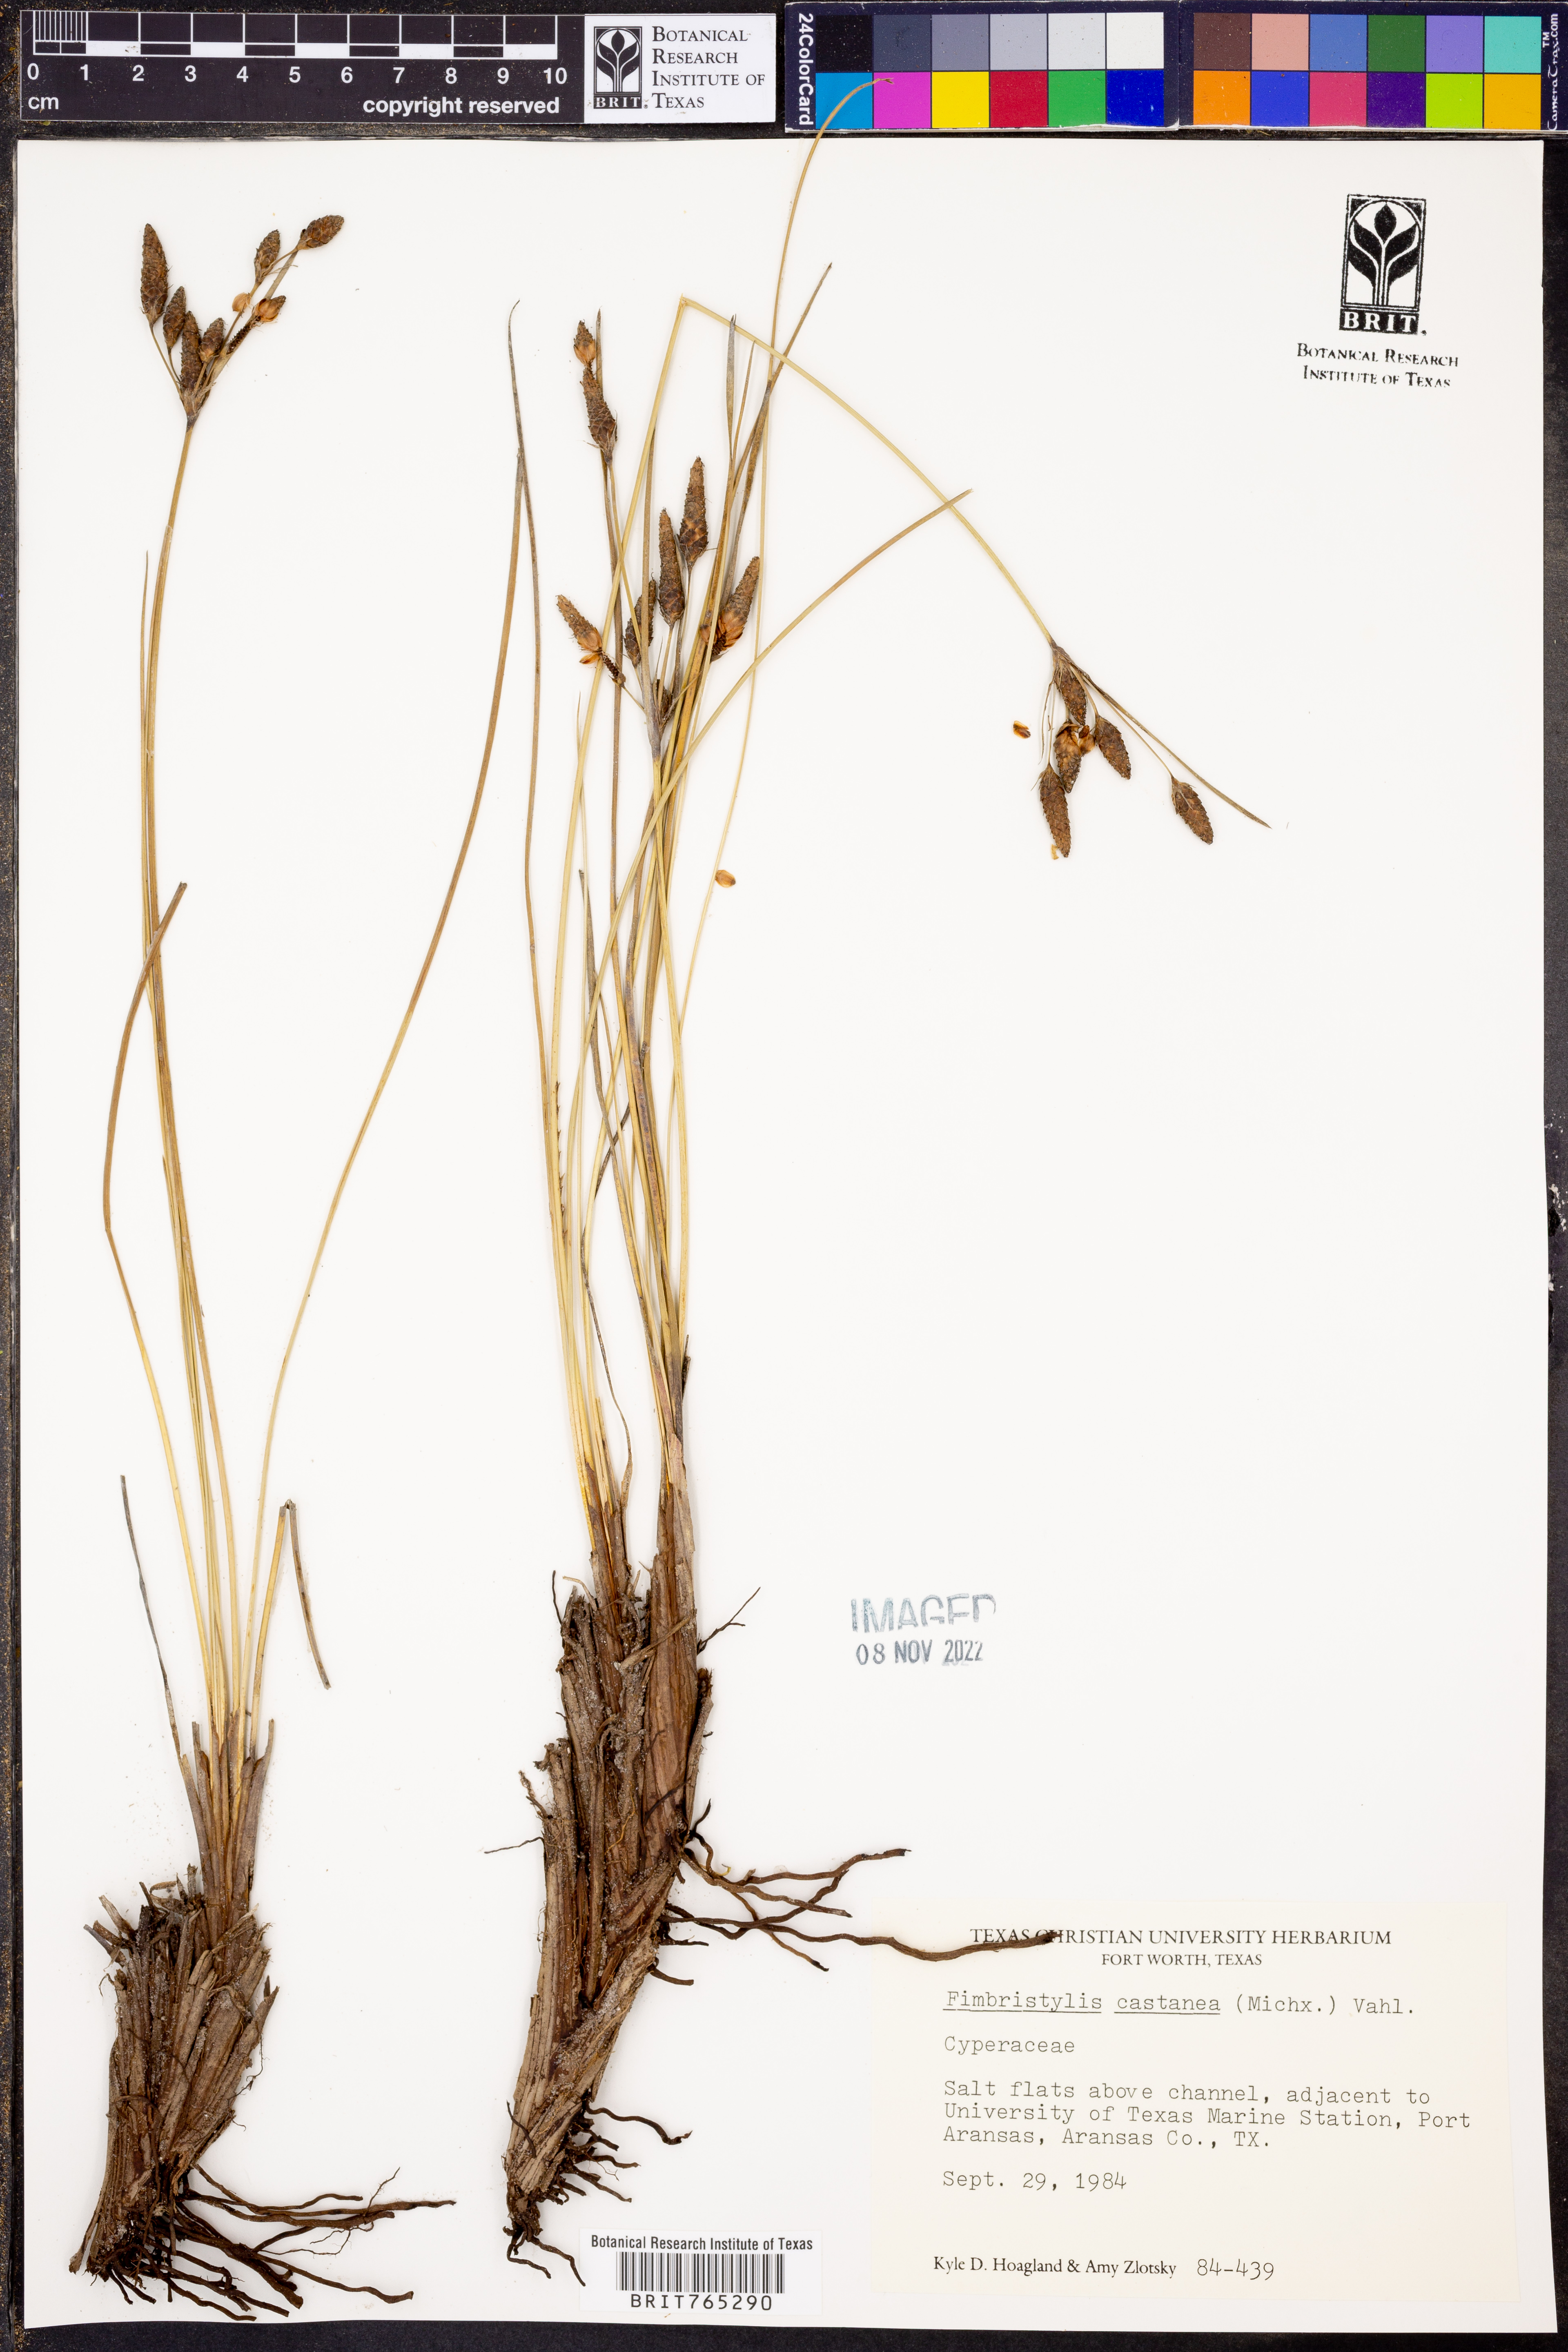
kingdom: Plantae
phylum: Tracheophyta
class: Liliopsida
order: Poales
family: Cyperaceae
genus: Fimbristylis
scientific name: Fimbristylis spadicea
